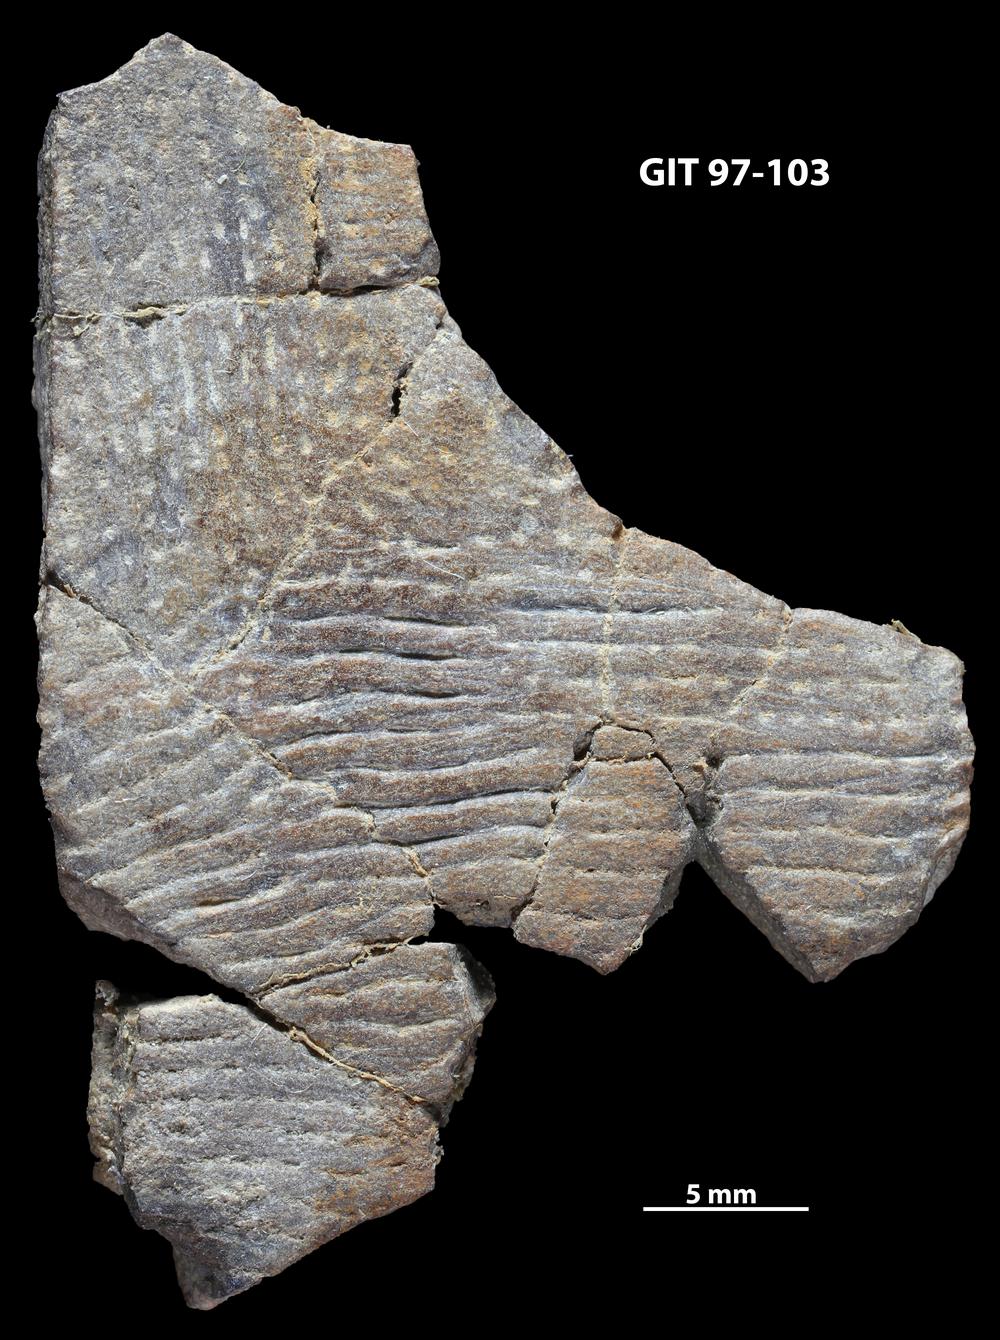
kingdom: Animalia
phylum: Chordata
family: Holonematidae
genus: Holonema
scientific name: Holonema
